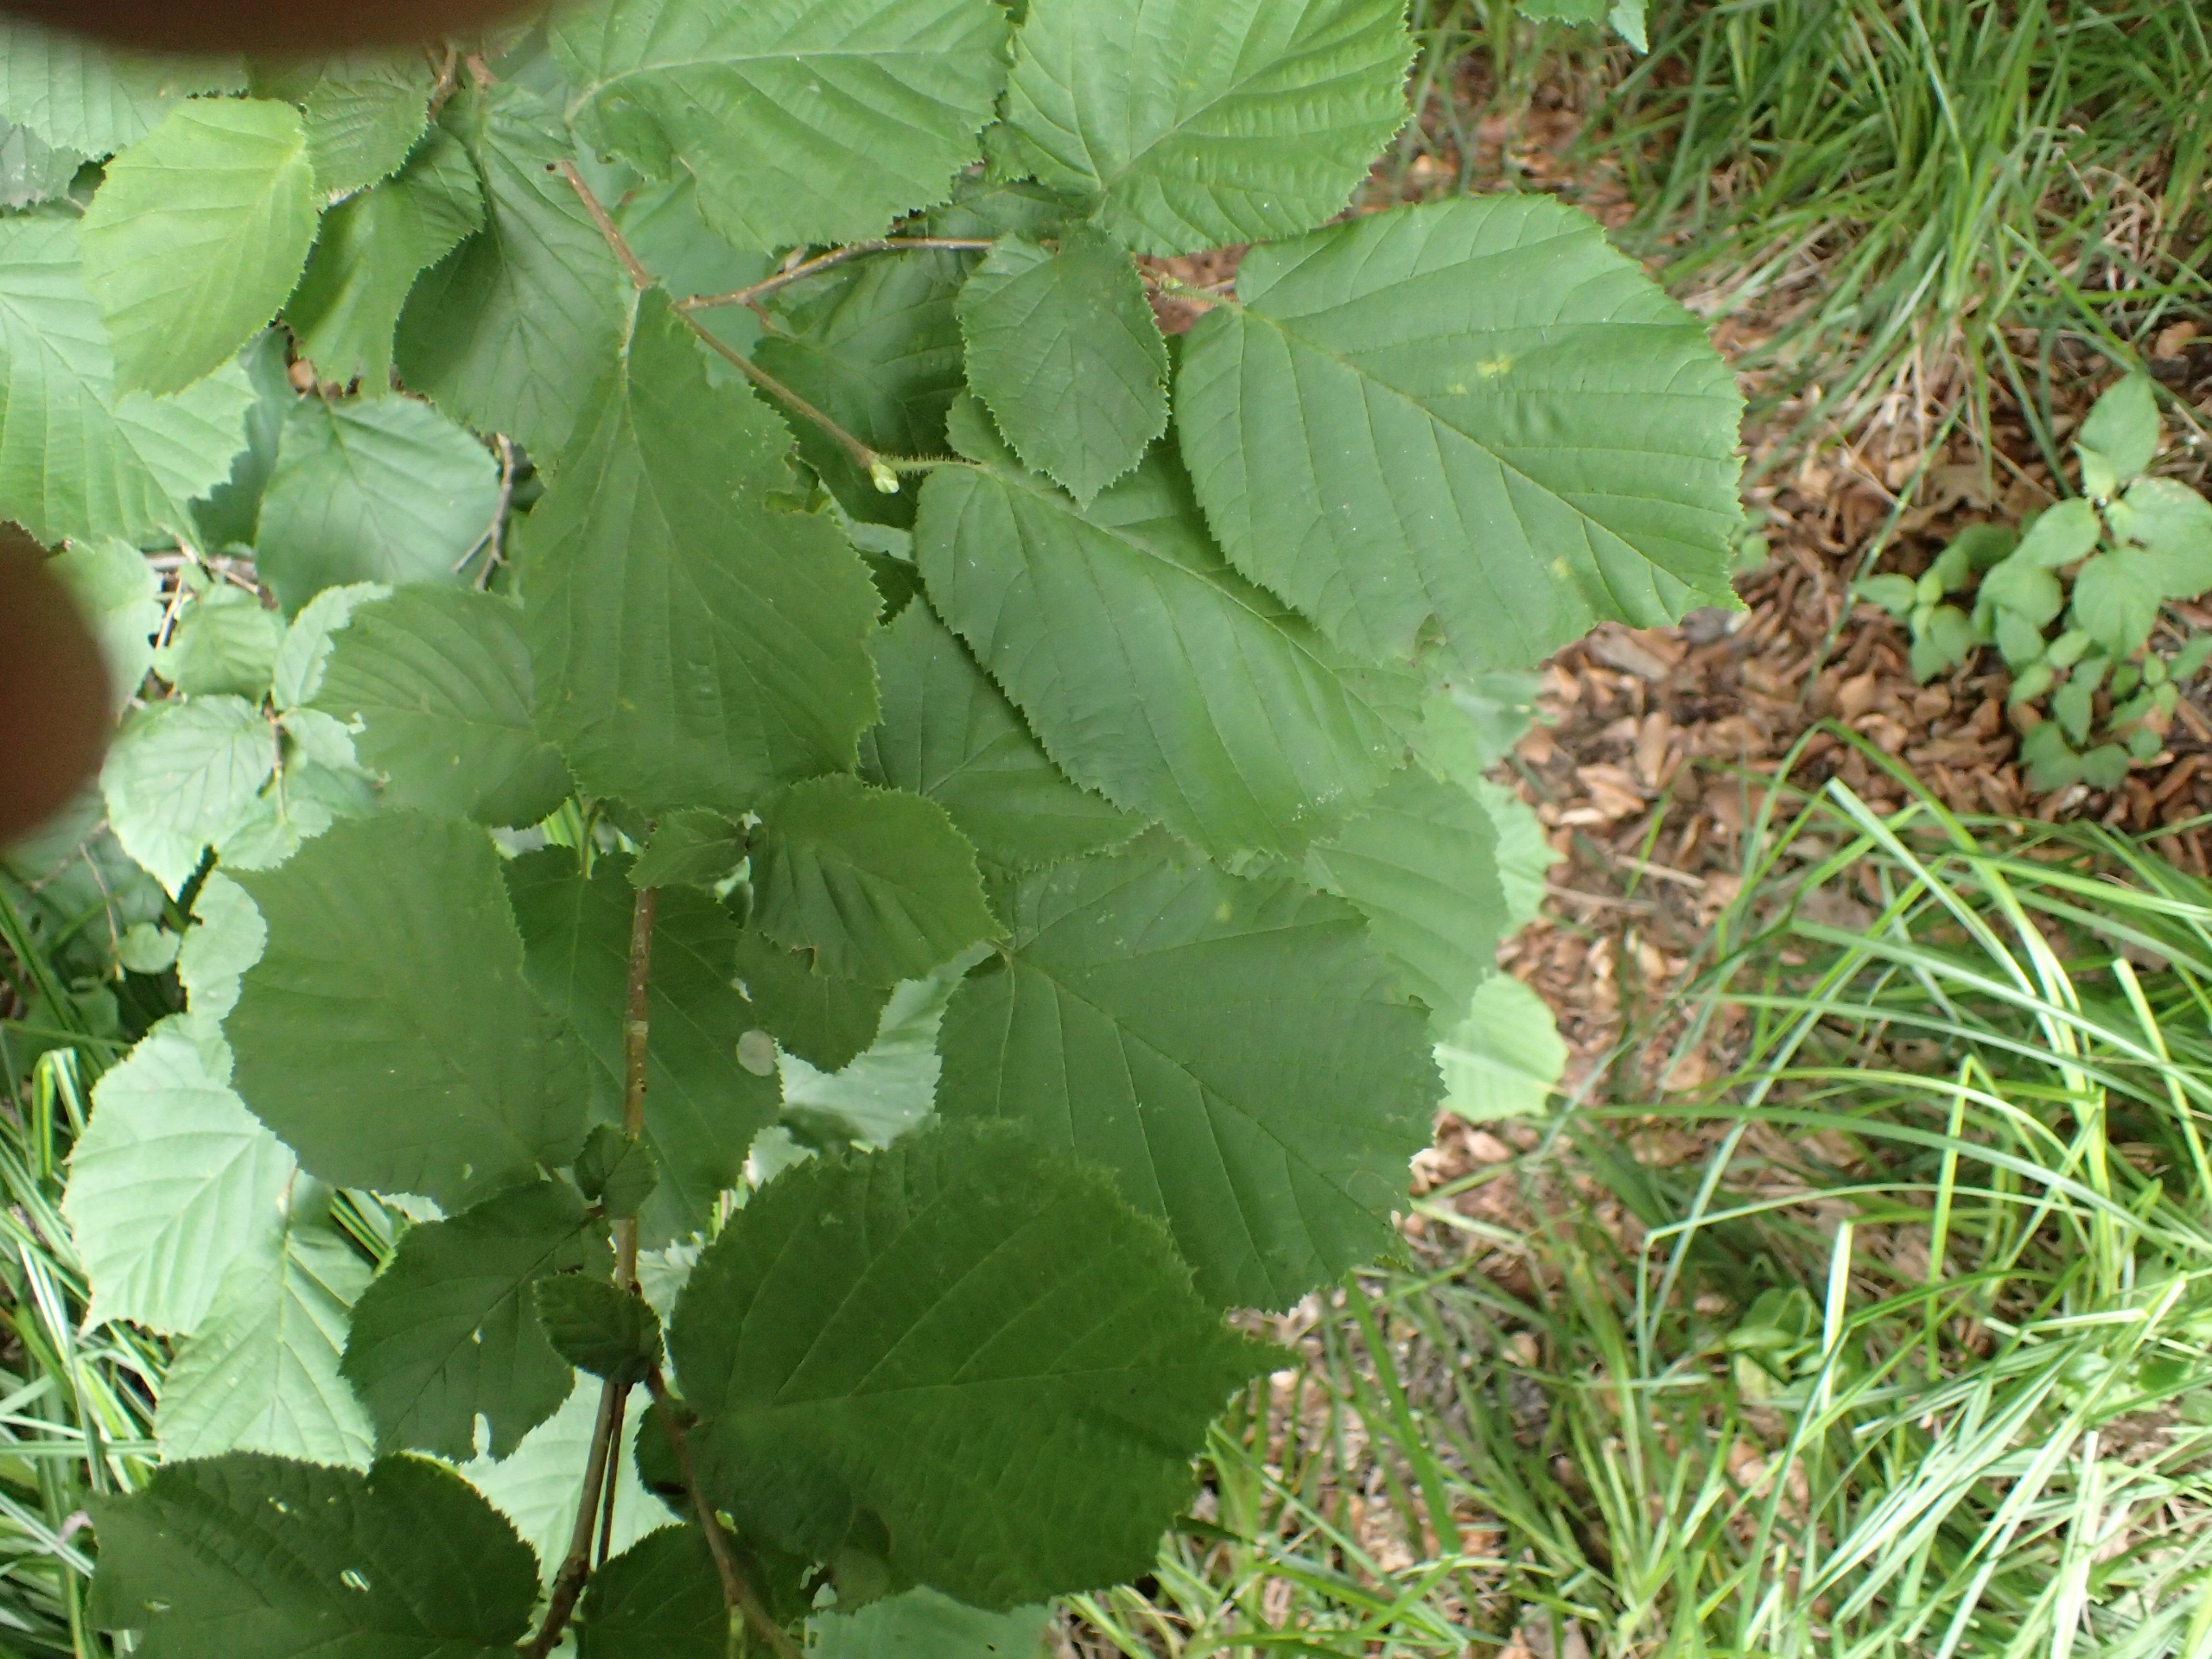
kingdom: Plantae
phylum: Tracheophyta
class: Magnoliopsida
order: Fagales
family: Betulaceae
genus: Corylus
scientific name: Corylus avellana
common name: Hassel
